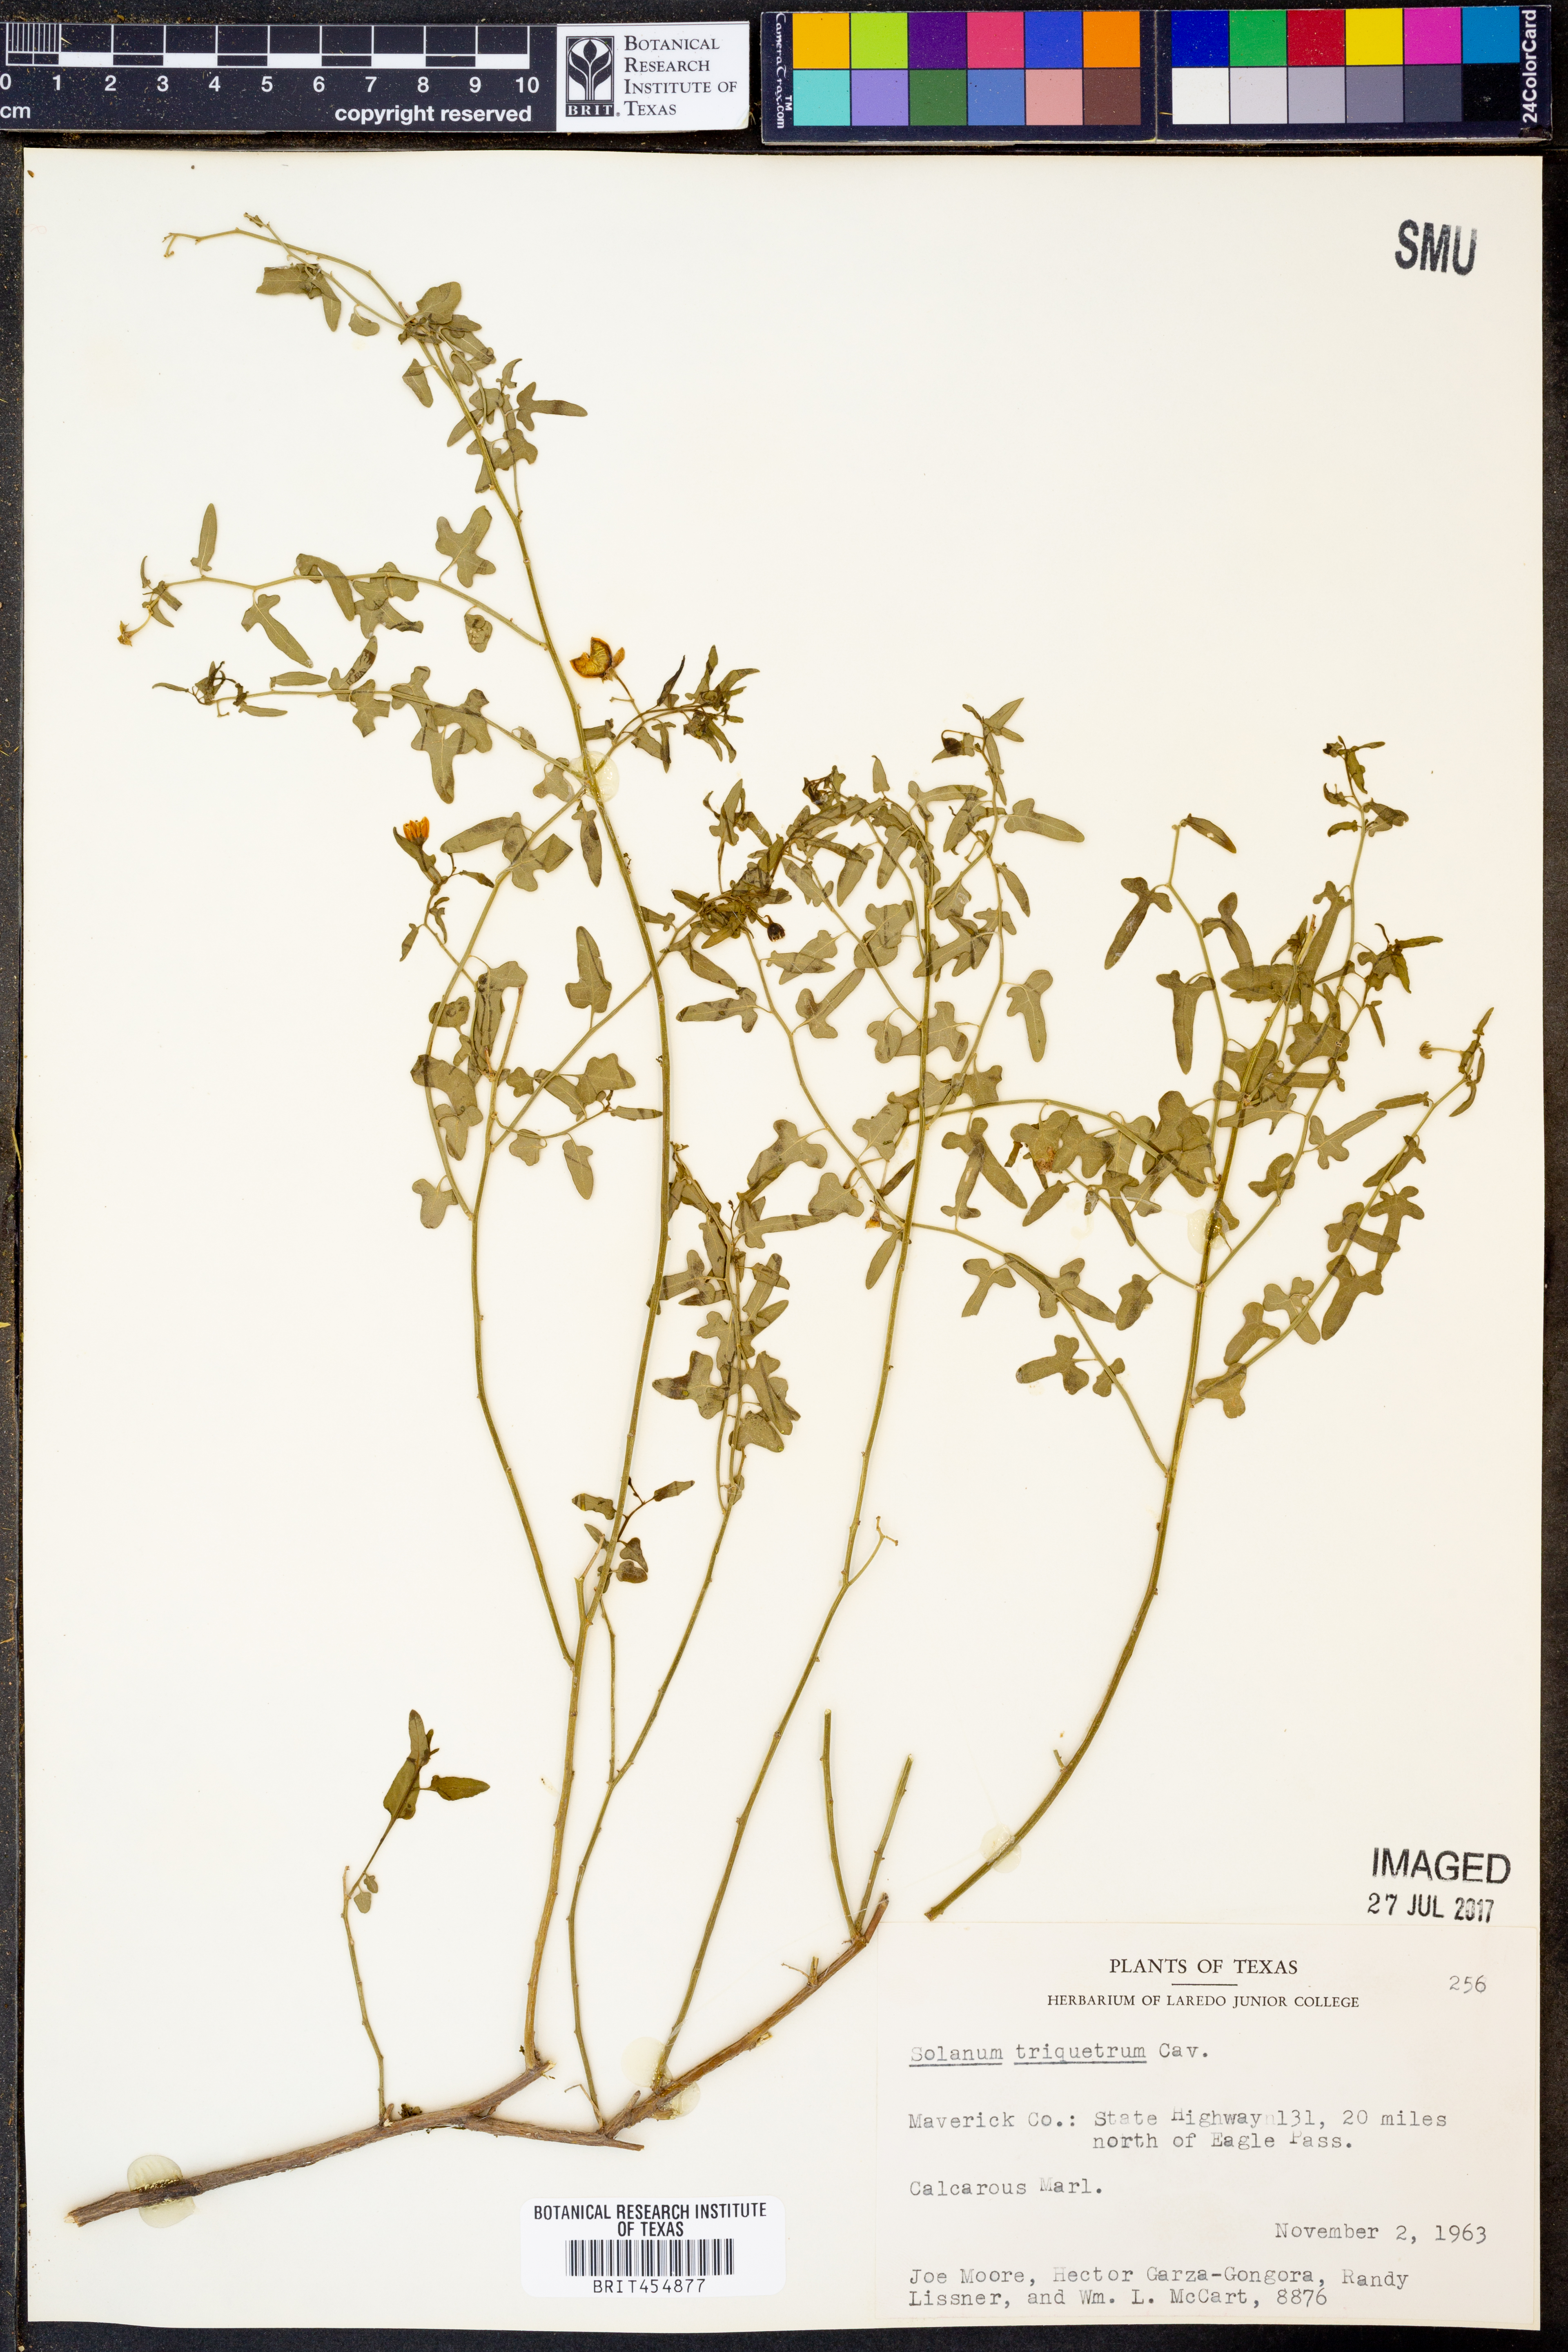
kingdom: Plantae
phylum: Tracheophyta
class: Magnoliopsida
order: Solanales
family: Solanaceae
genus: Solanum
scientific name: Solanum triquetrum
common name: Texas nightshade
